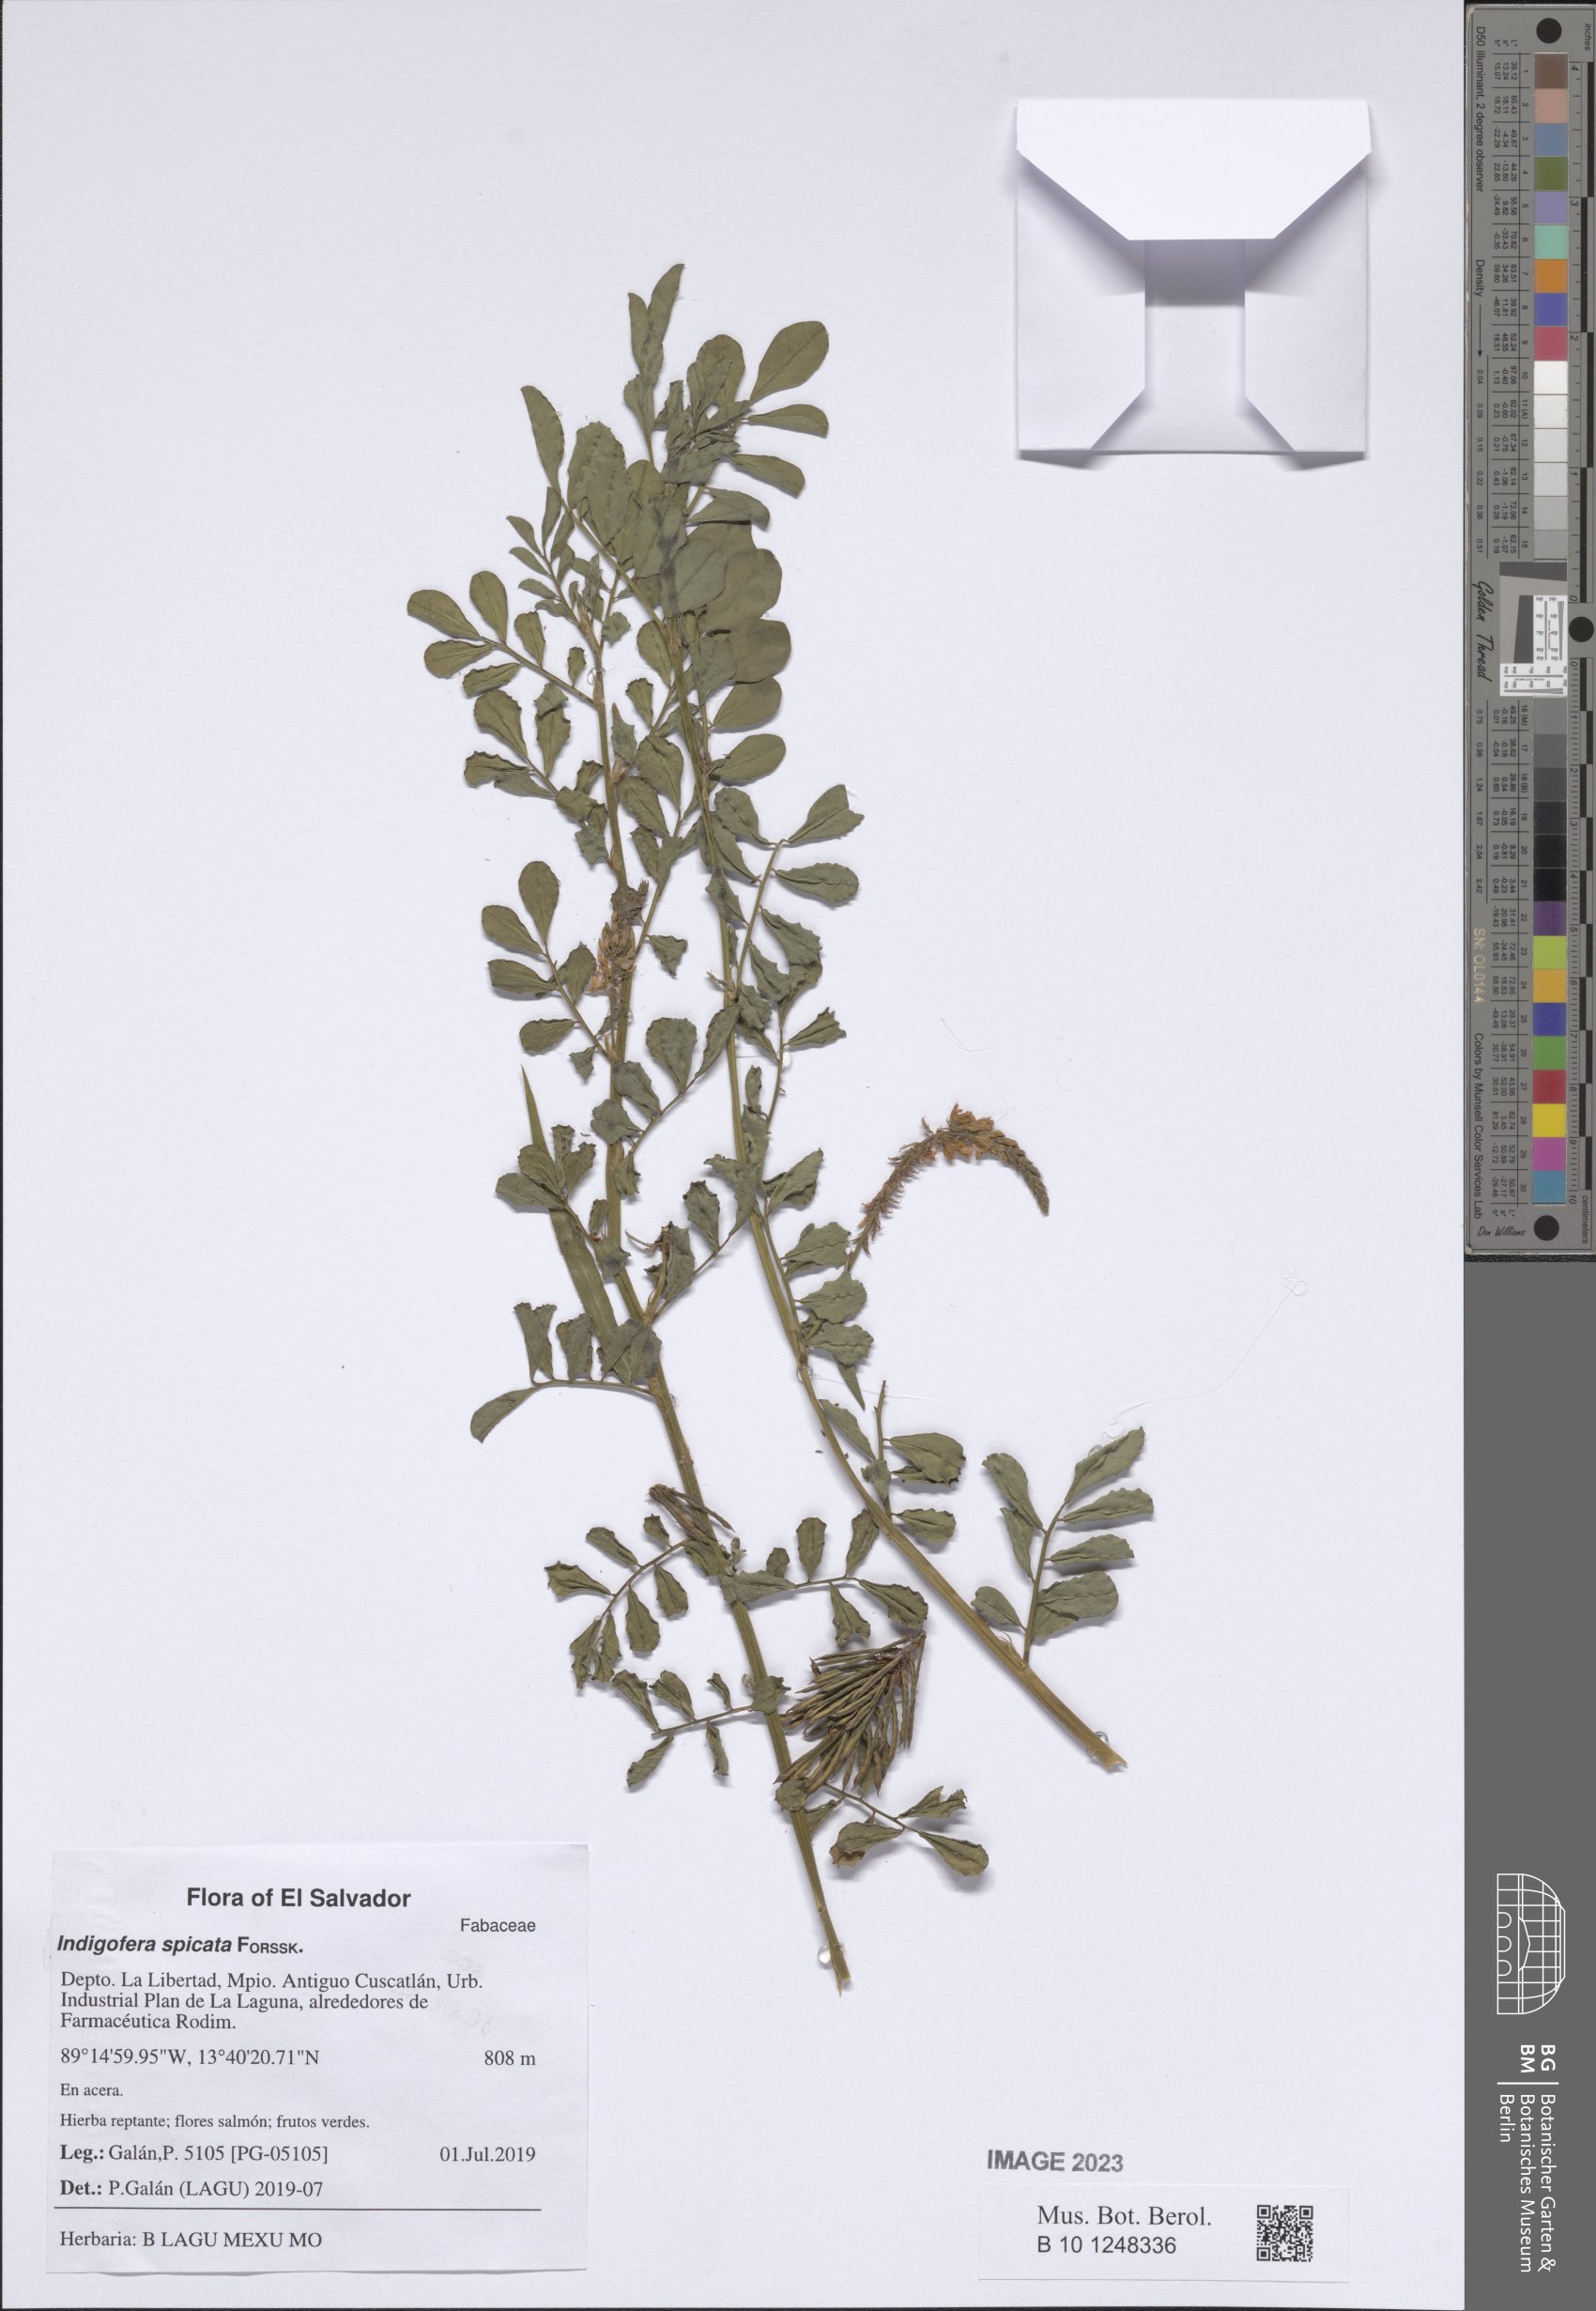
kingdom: Plantae
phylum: Tracheophyta
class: Magnoliopsida
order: Fabales
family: Fabaceae
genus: Indigofera
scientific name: Indigofera spicata
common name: Creeping indigo
